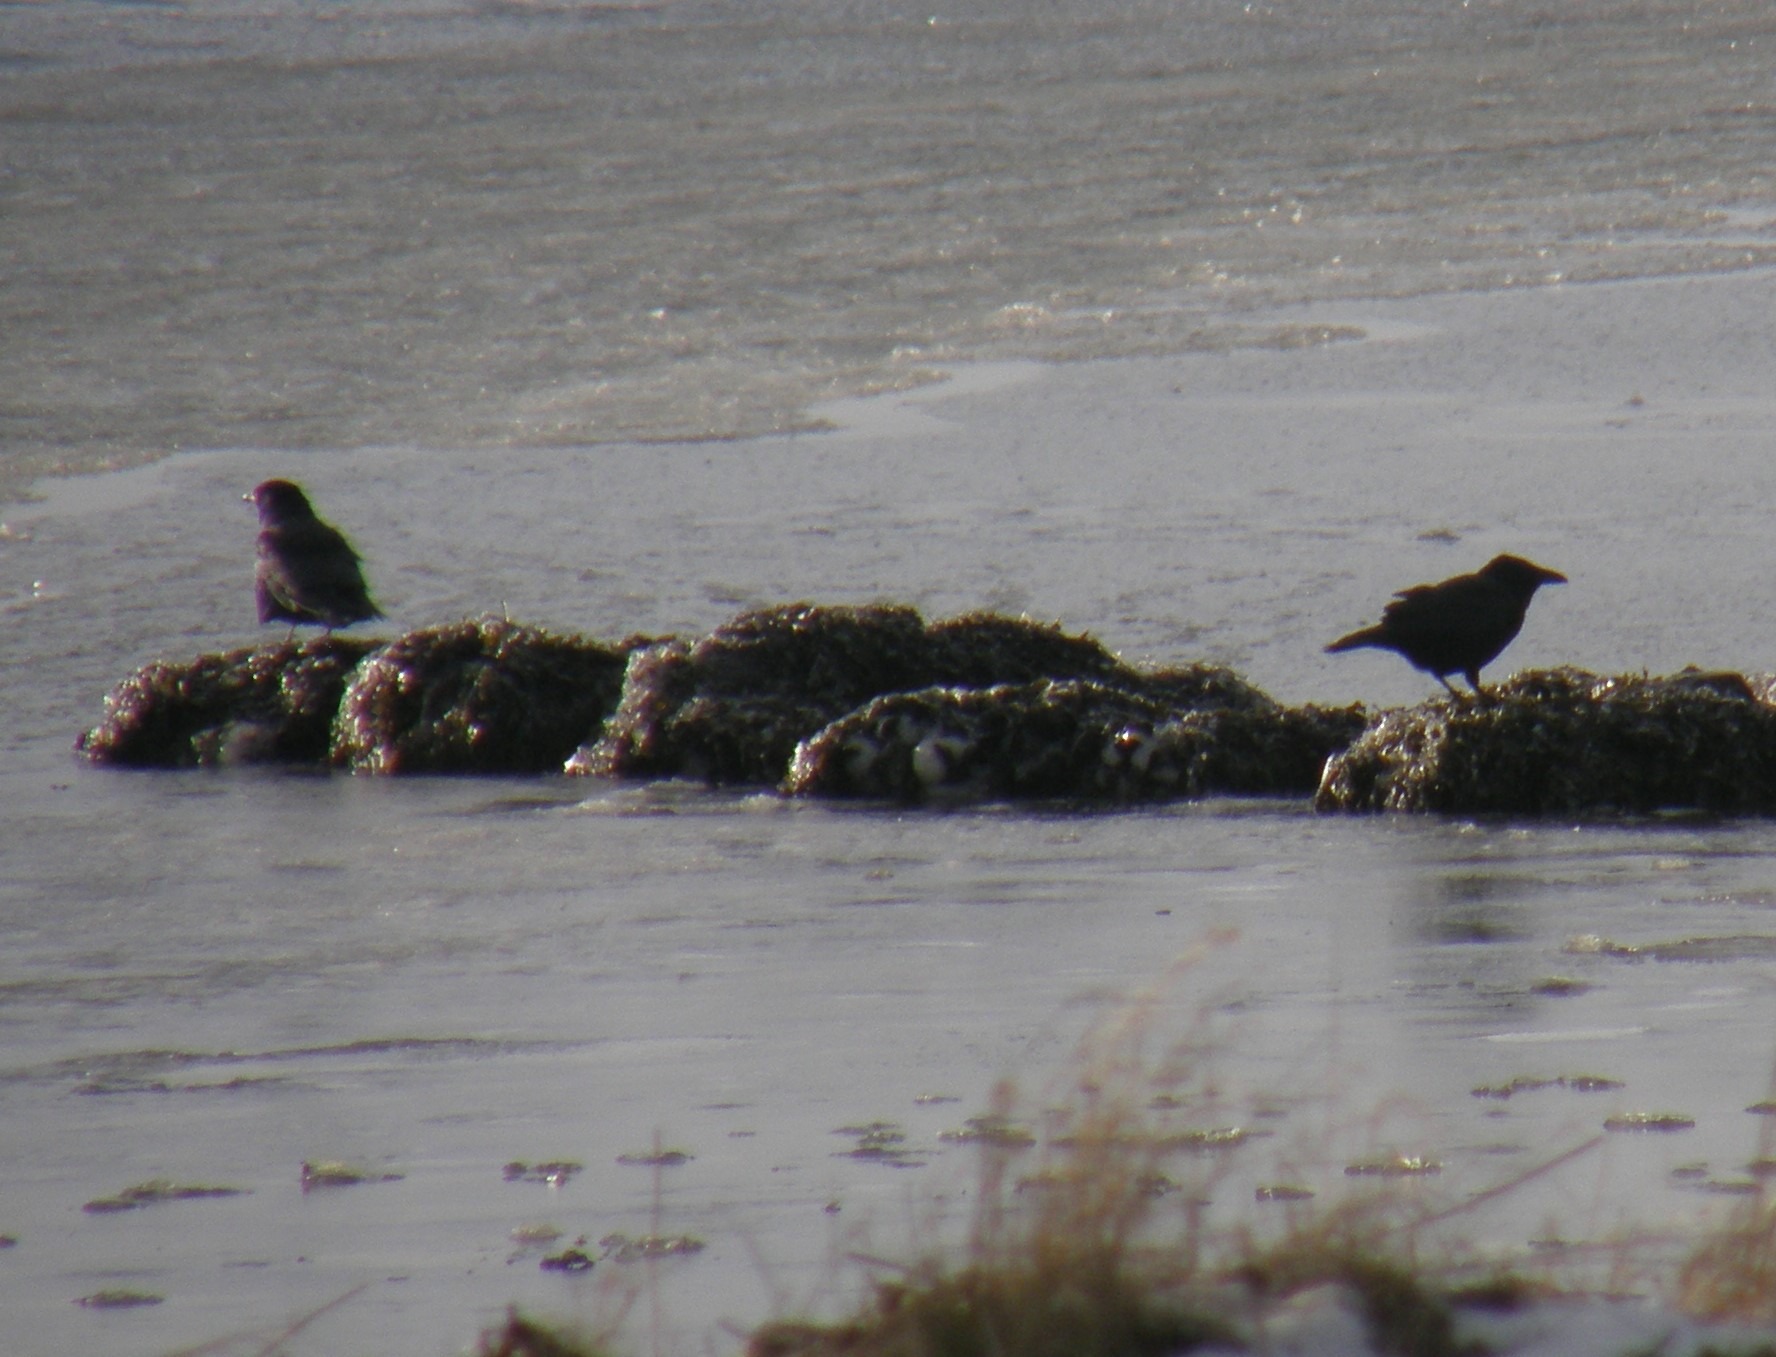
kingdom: Animalia
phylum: Chordata
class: Aves
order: Passeriformes
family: Corvidae
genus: Corvus
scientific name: Corvus corone
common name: Sortkrage
